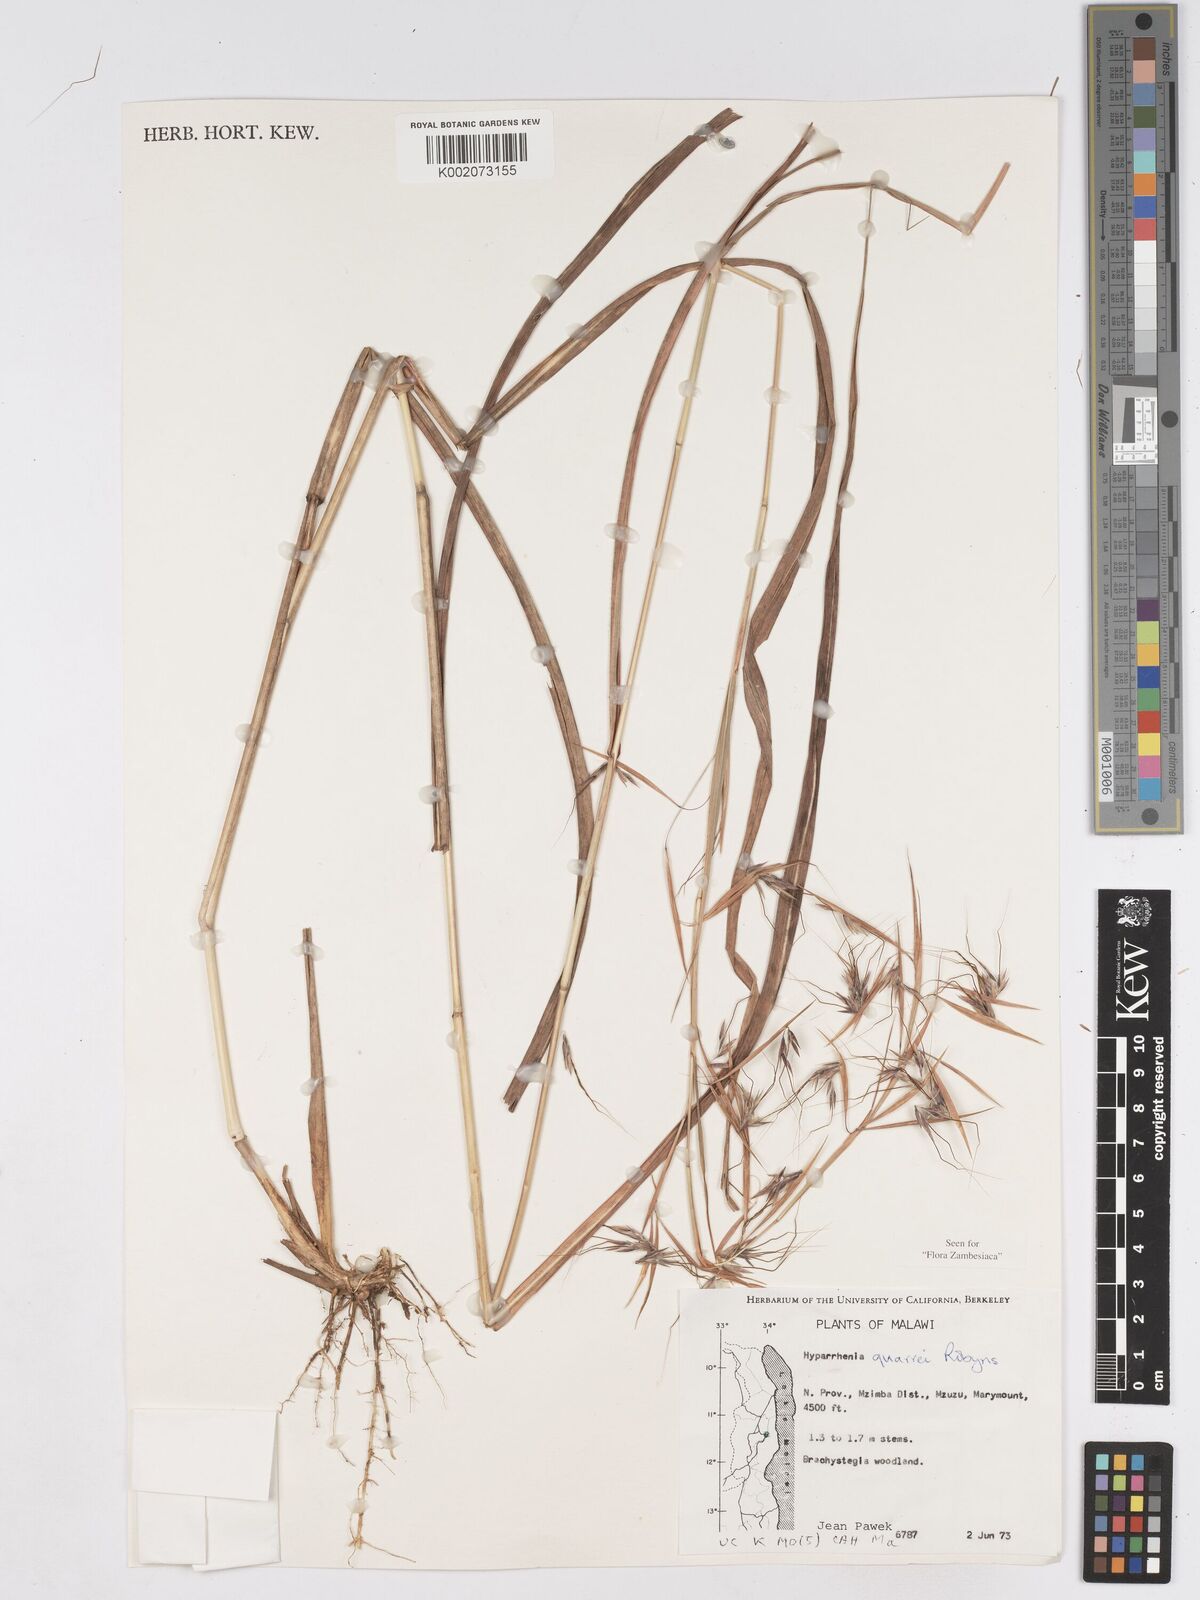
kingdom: Plantae
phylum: Tracheophyta
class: Liliopsida
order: Poales
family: Poaceae
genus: Hyparrhenia
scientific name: Hyparrhenia quarrei
